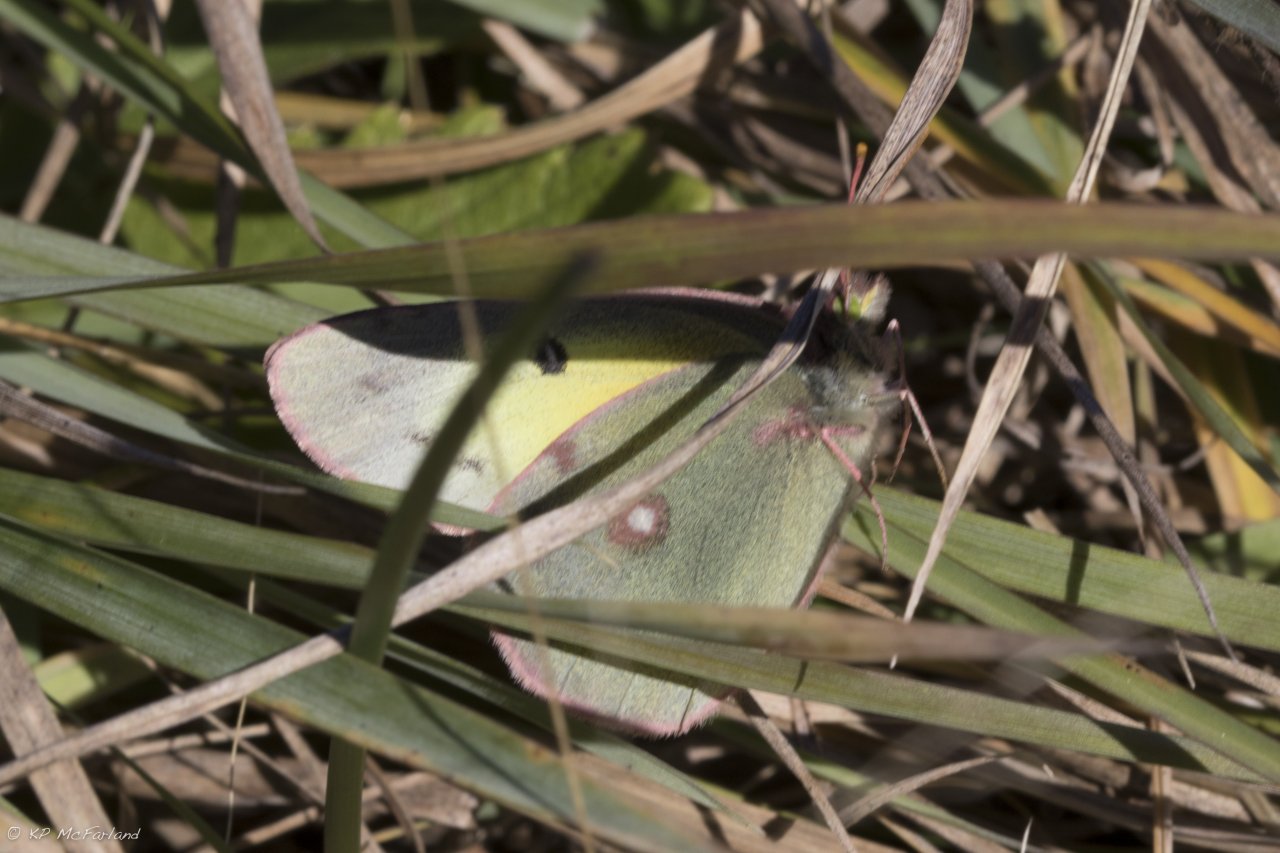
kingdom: Animalia
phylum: Arthropoda
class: Insecta
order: Lepidoptera
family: Pieridae
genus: Colias
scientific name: Colias philodice
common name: Clouded Sulphur
